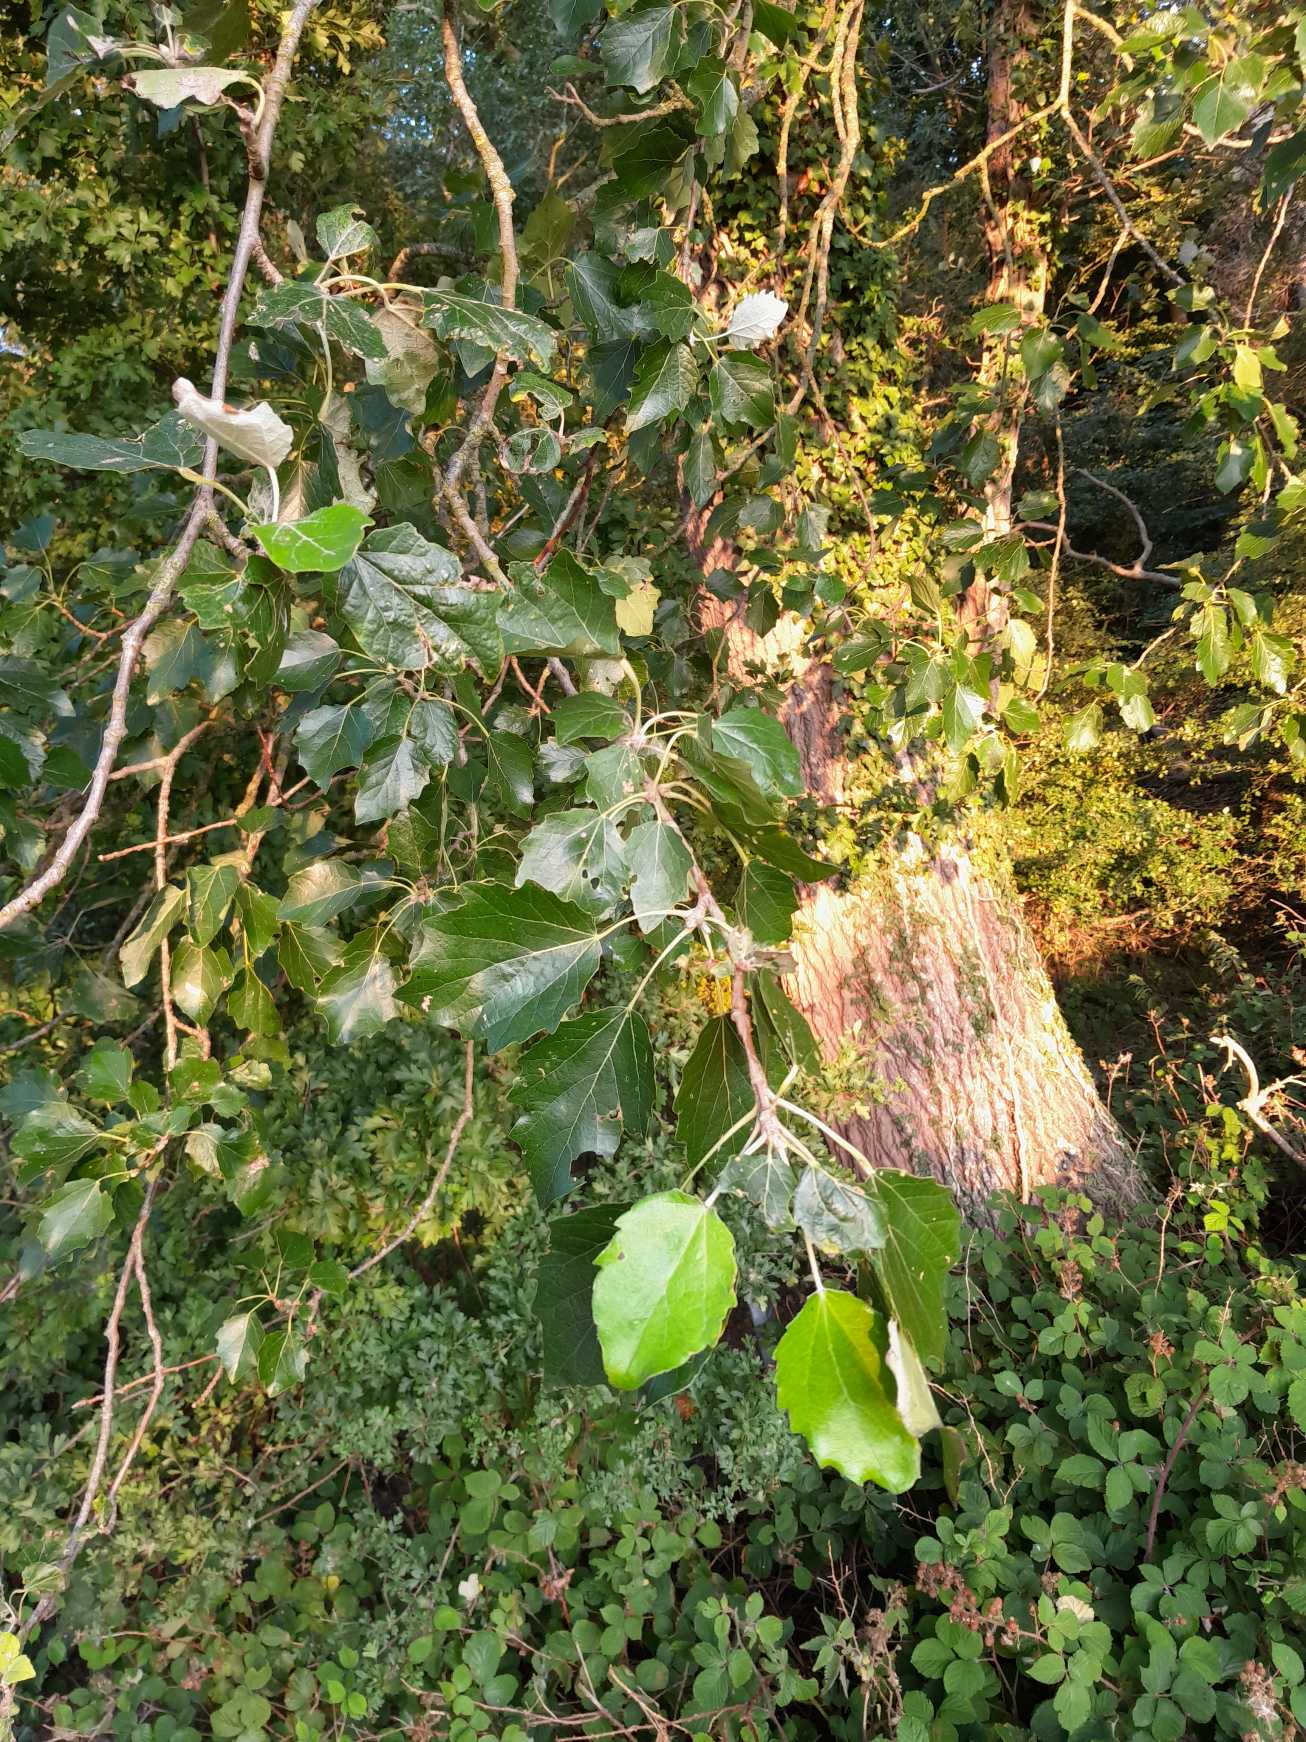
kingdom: Plantae
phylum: Tracheophyta
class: Magnoliopsida
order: Malpighiales
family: Salicaceae
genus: Populus
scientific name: Populus canescens
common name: Grå-poppel
